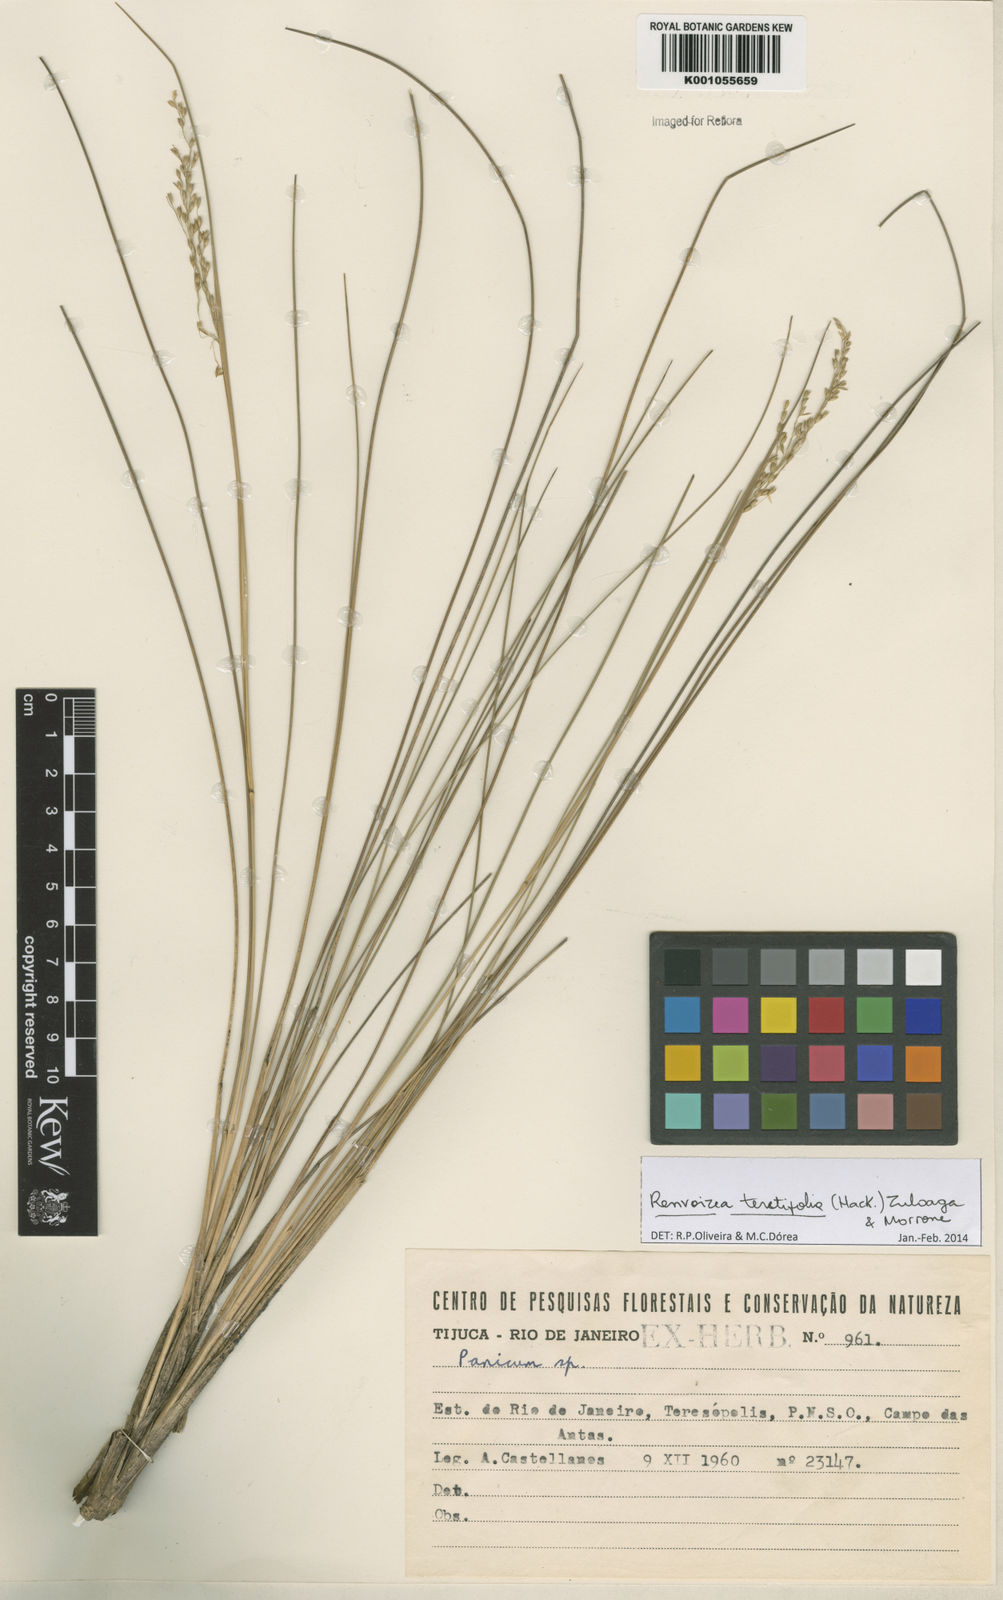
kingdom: Plantae
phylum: Tracheophyta
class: Liliopsida
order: Poales
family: Poaceae
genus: Renvoizea
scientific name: Renvoizea teretifolia
